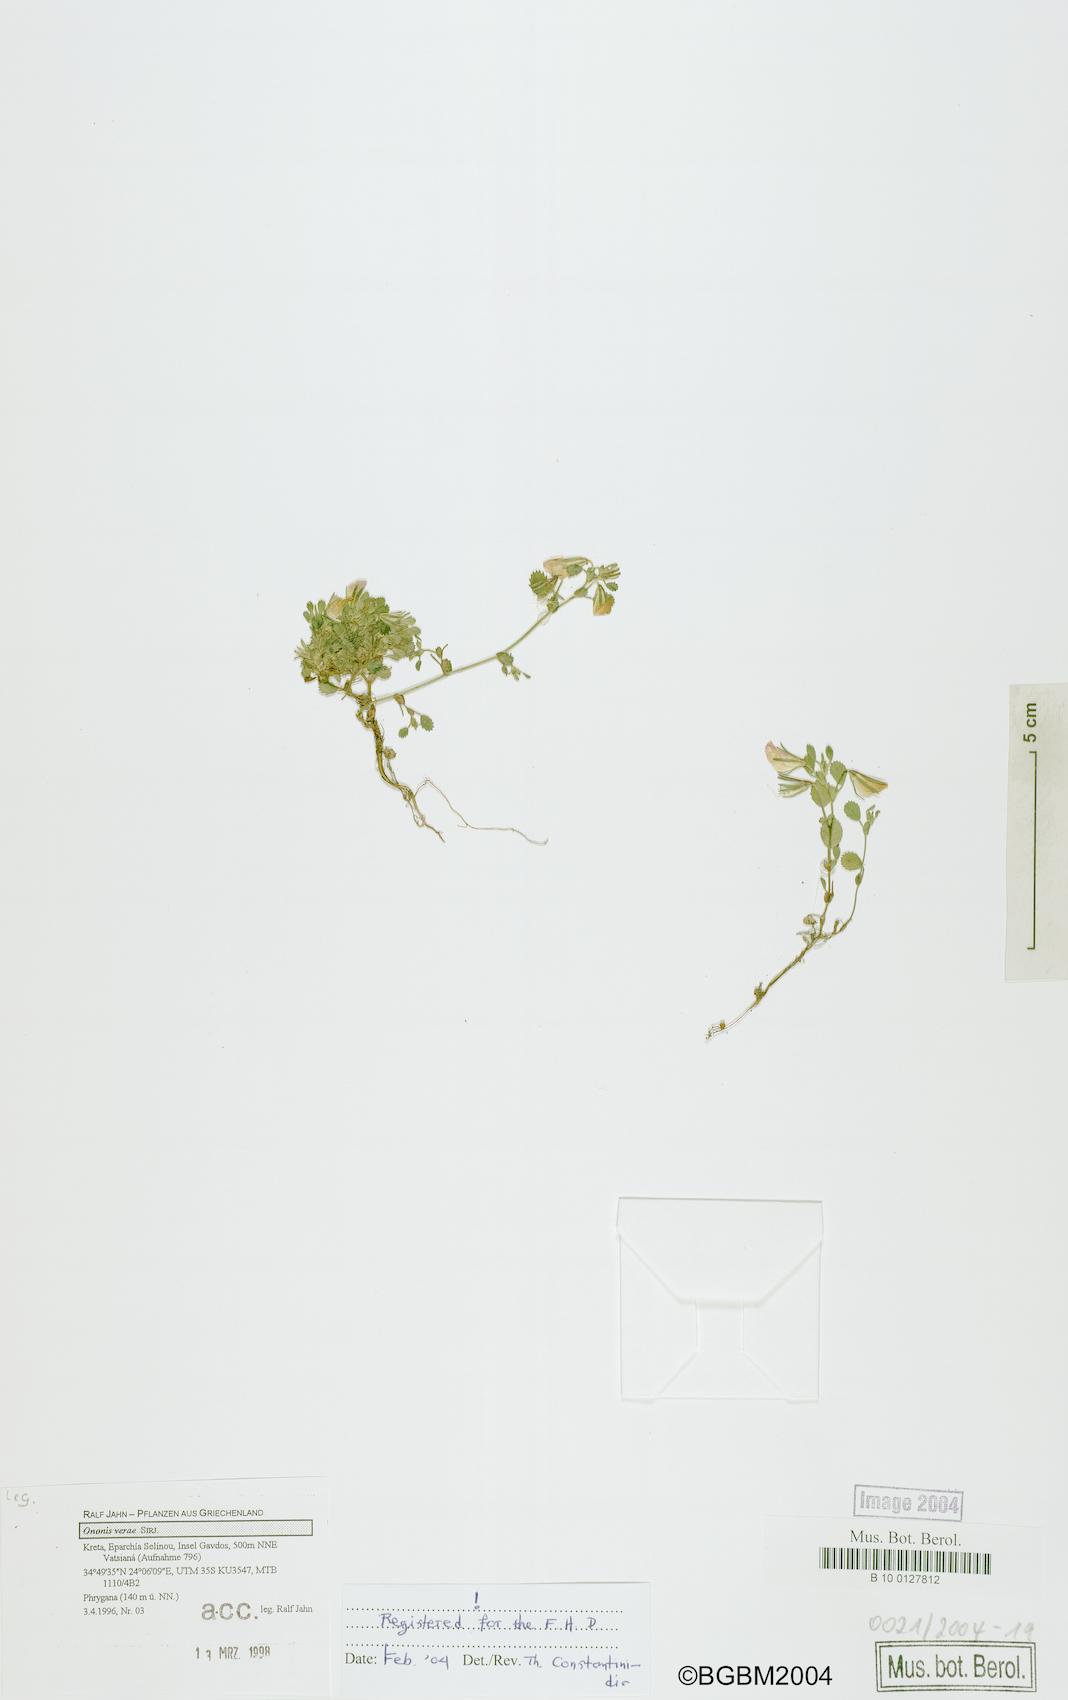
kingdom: Plantae
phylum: Tracheophyta
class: Magnoliopsida
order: Fabales
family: Fabaceae
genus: Ononis
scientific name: Ononis verae
